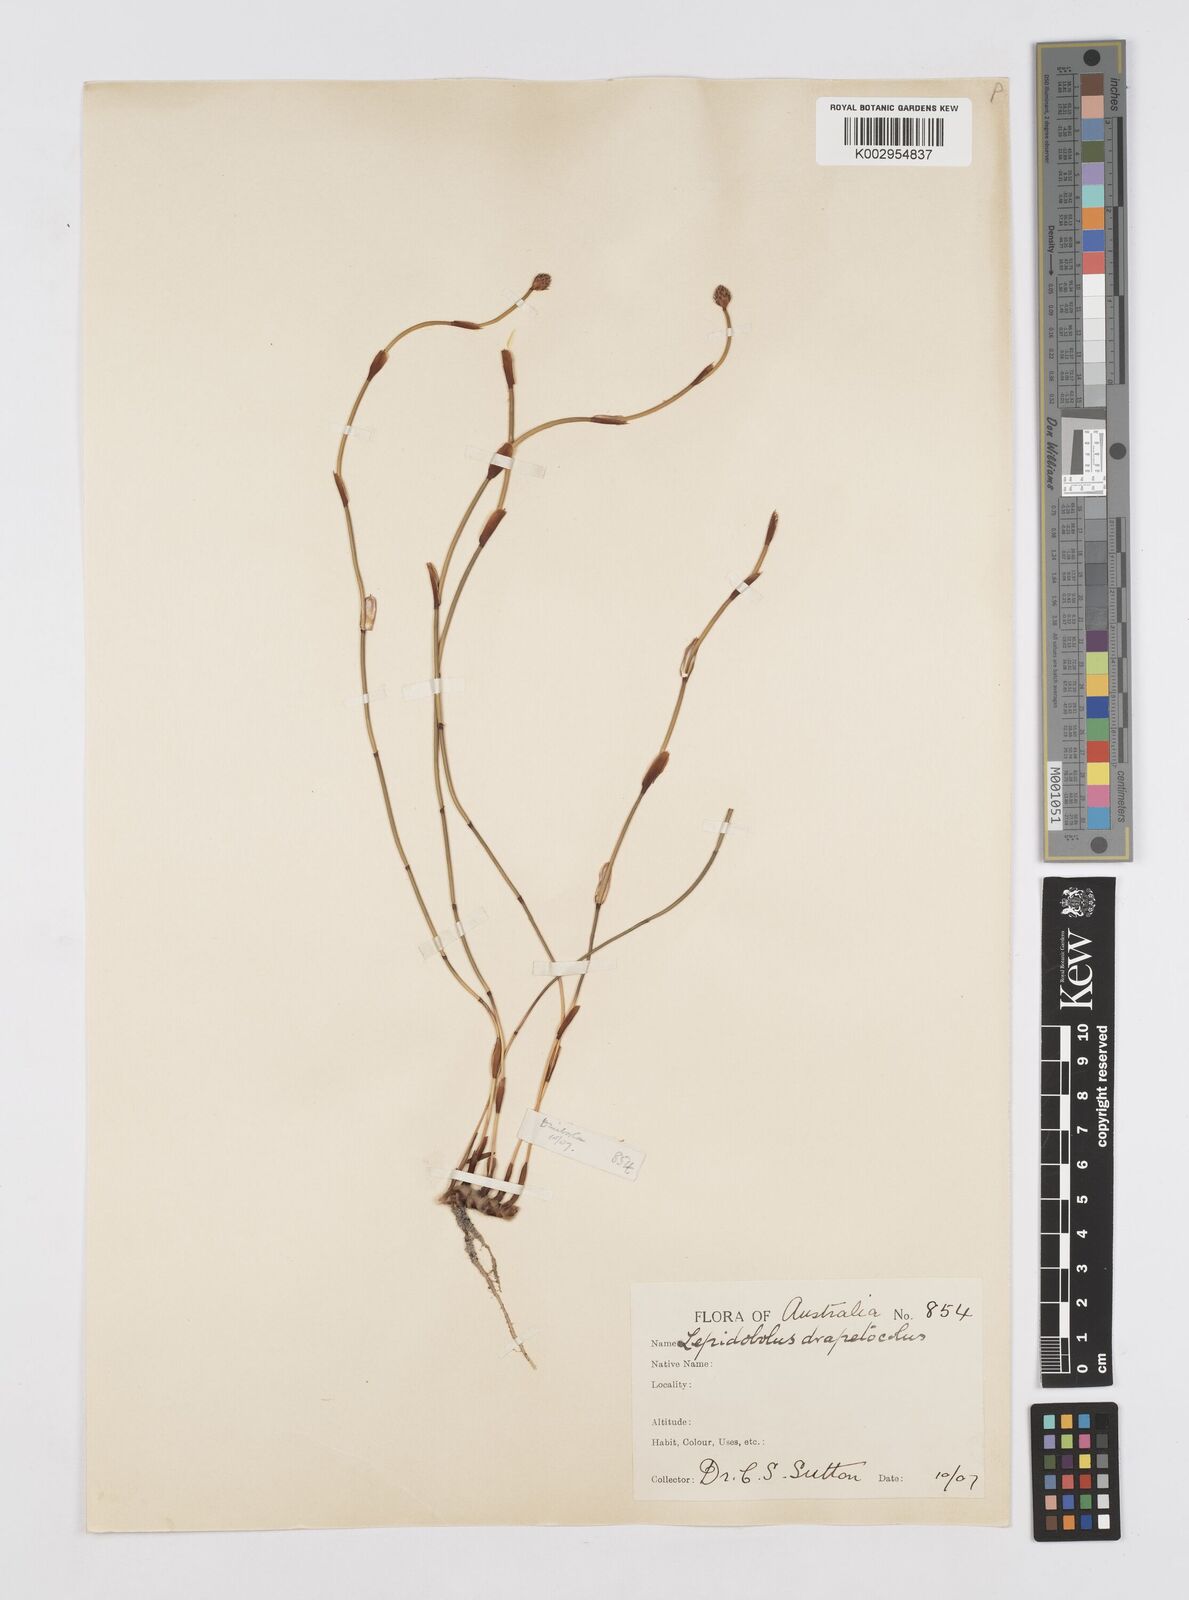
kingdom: Plantae
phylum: Tracheophyta
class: Liliopsida
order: Poales
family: Restionaceae
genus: Lepidobolus
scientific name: Lepidobolus drapetocoleus
